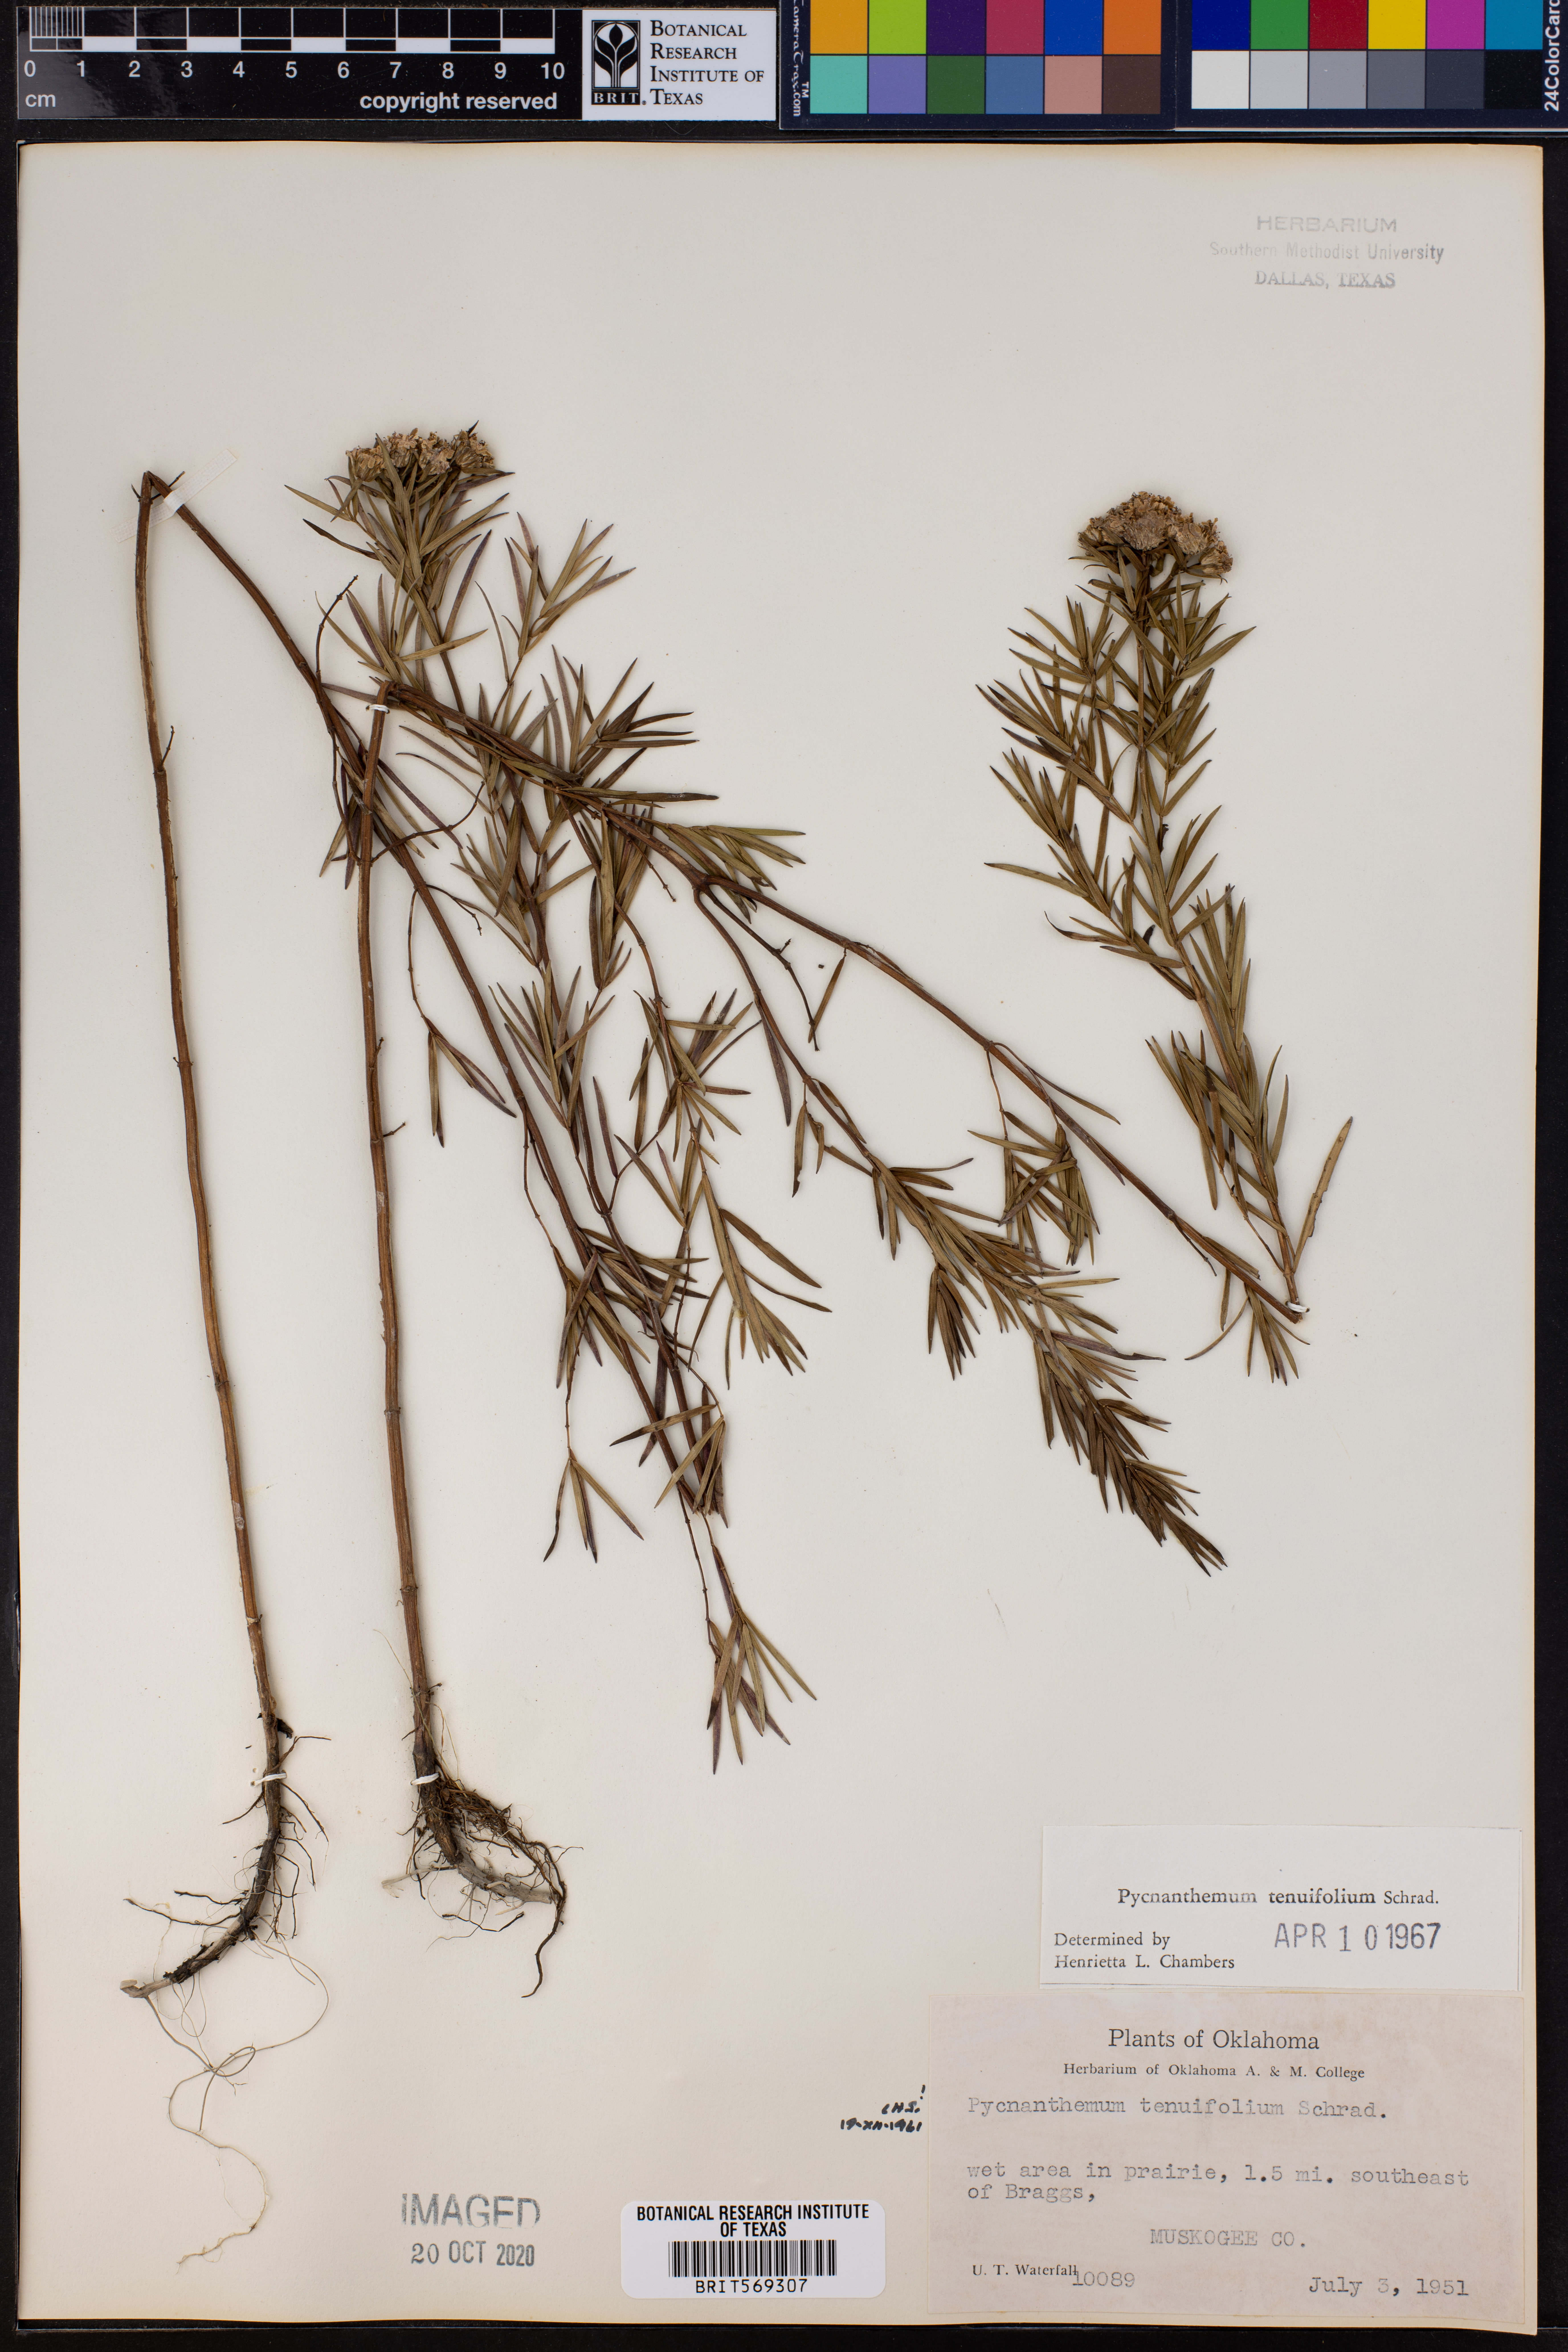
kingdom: Plantae
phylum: Tracheophyta
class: Magnoliopsida
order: Lamiales
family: Lamiaceae
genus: Pycnanthemum
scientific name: Pycnanthemum tenuifolium
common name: Narrow-leaf mountain-mint
